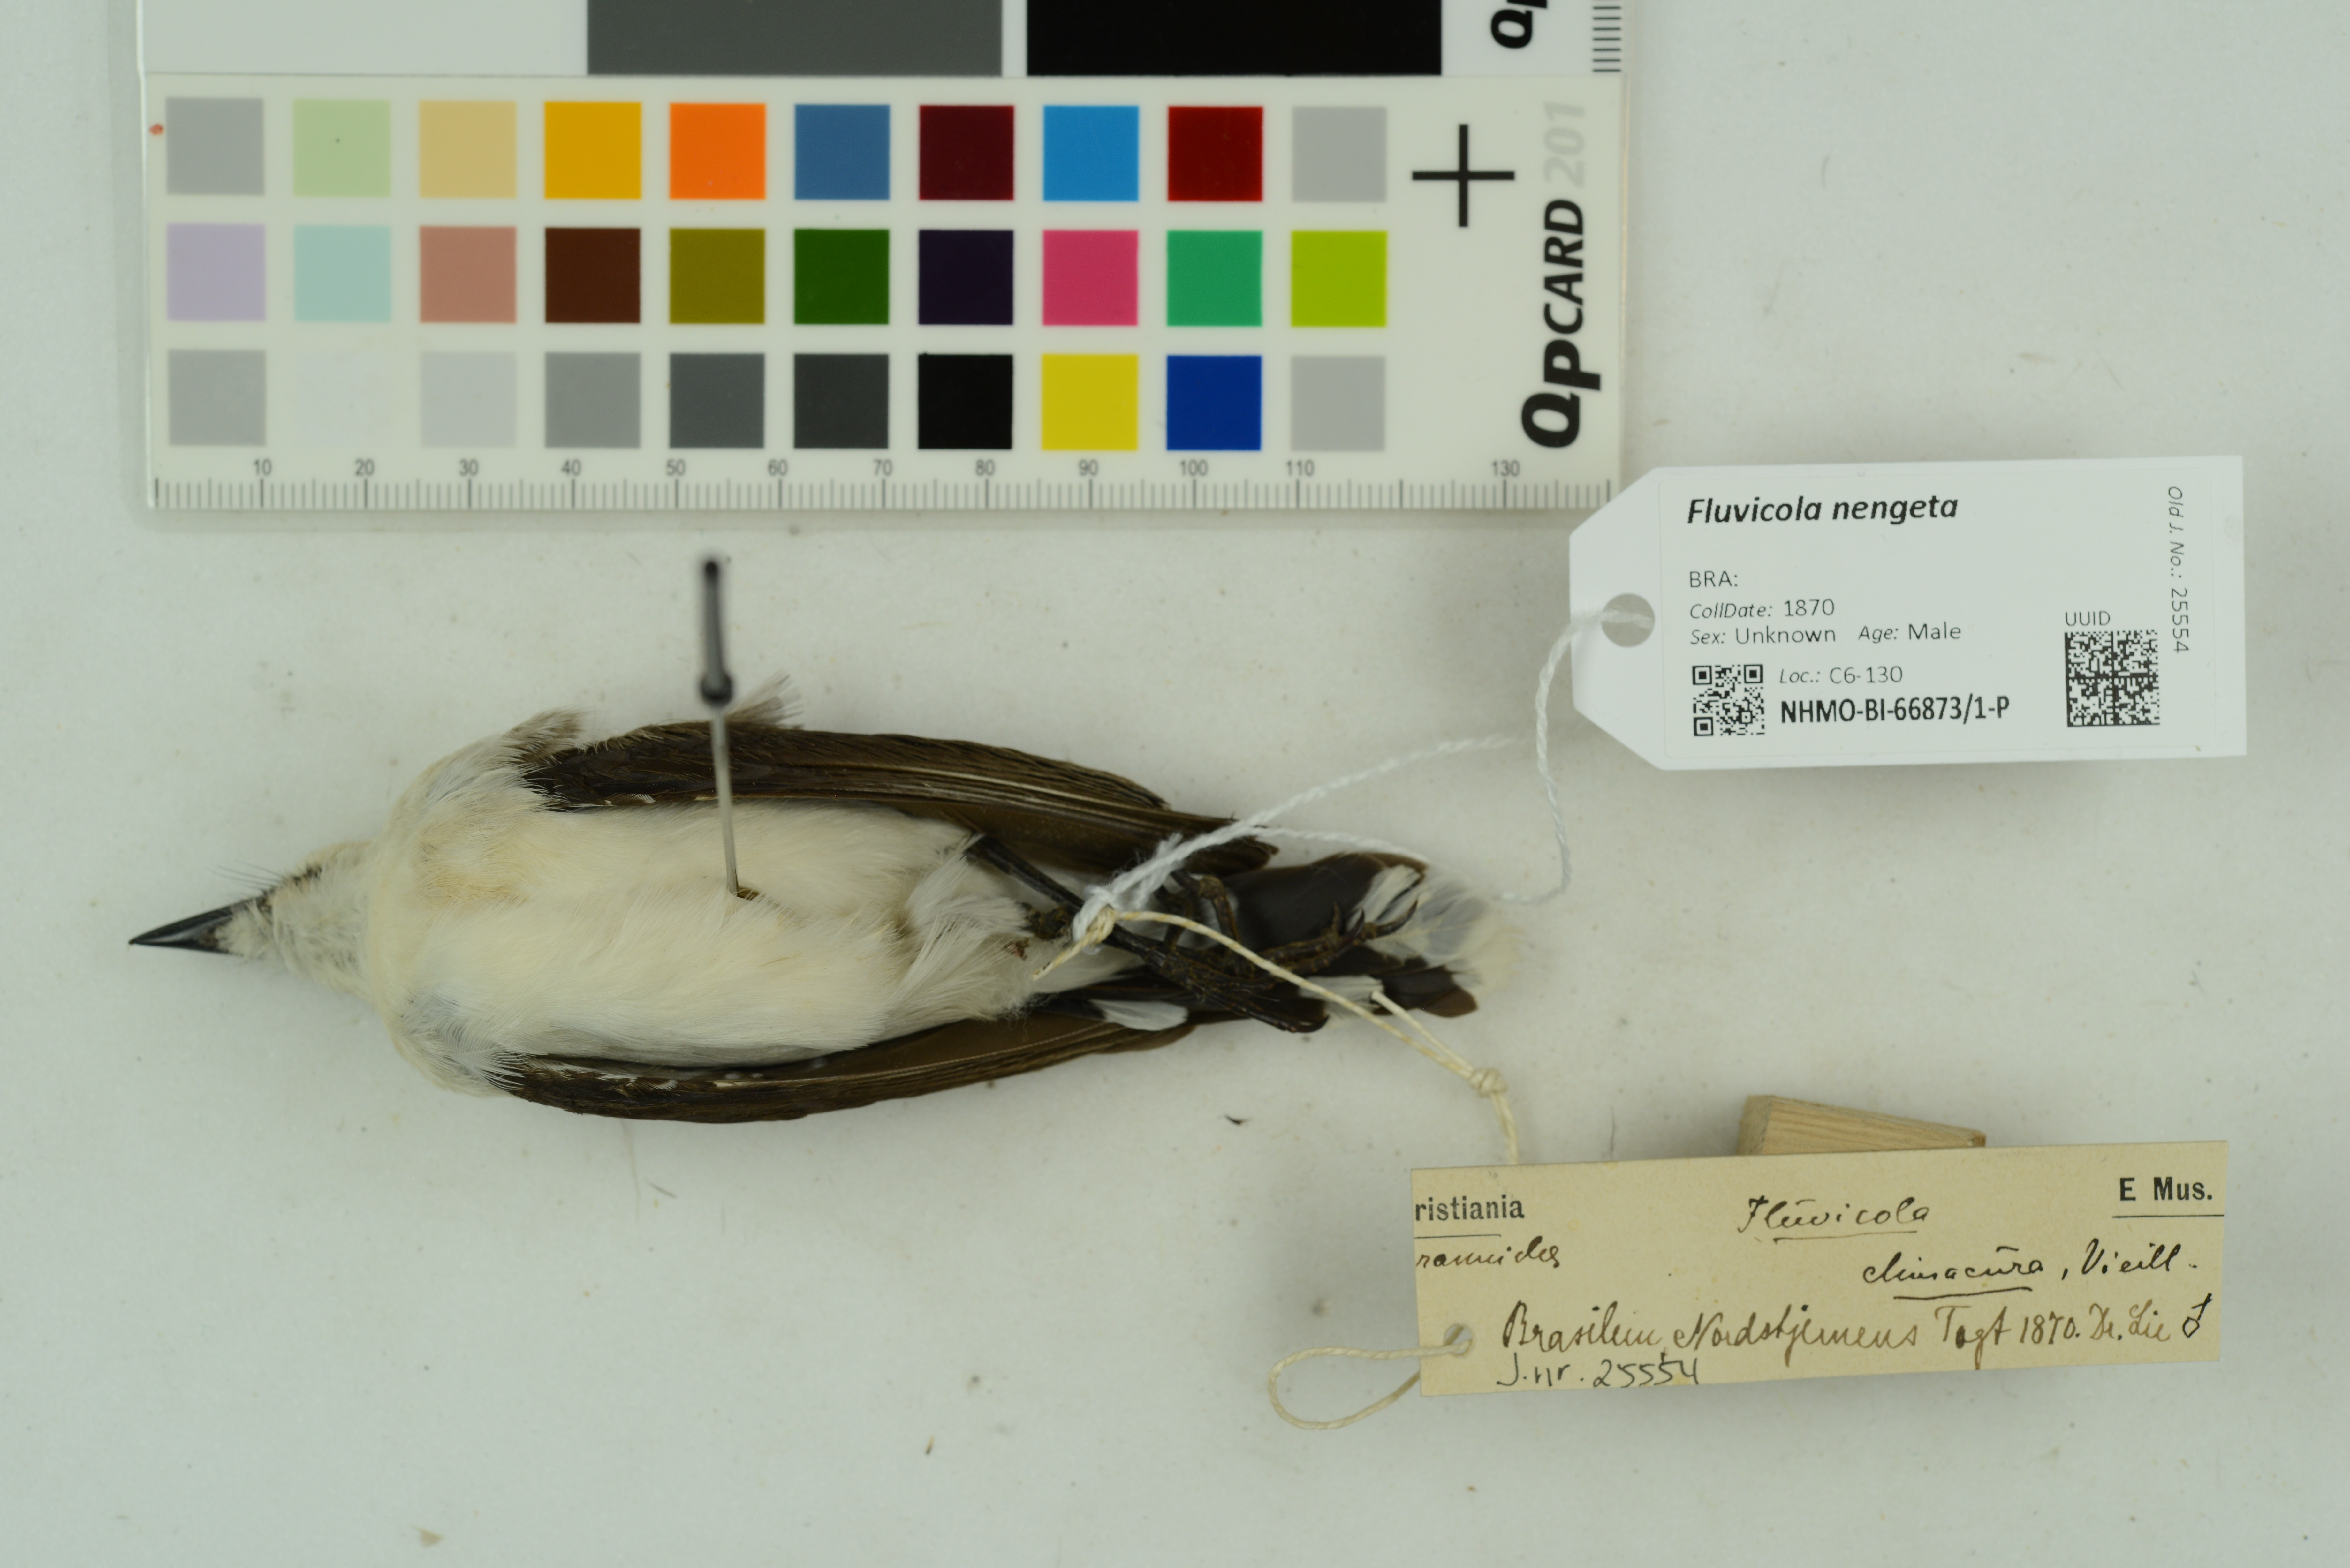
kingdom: Animalia
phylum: Chordata
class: Aves
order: Passeriformes
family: Tyrannidae
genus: Fluvicola
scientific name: Fluvicola nengeta
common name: Masked water tyrant
